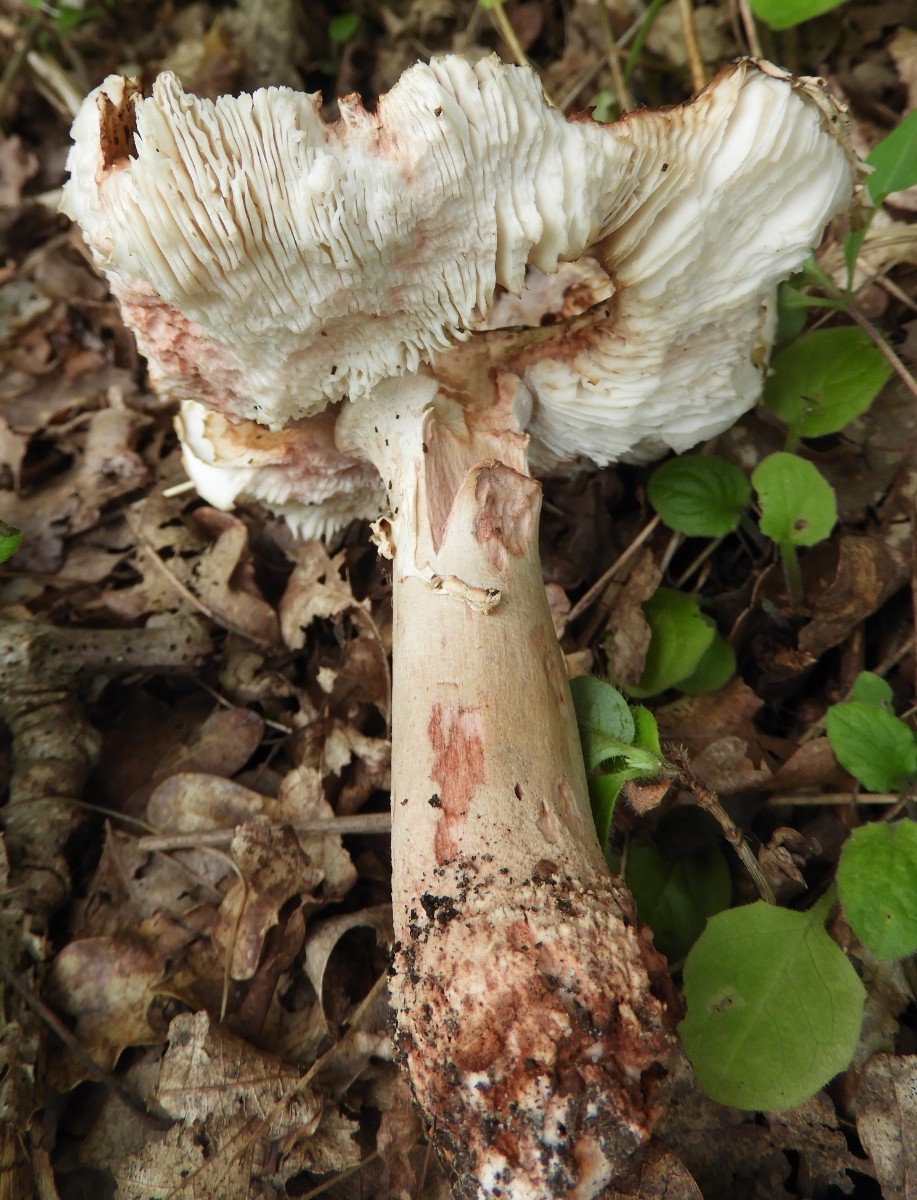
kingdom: Fungi
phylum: Basidiomycota
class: Agaricomycetes
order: Agaricales
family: Amanitaceae
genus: Amanita
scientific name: Amanita rubescens
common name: rødmende fluesvamp
